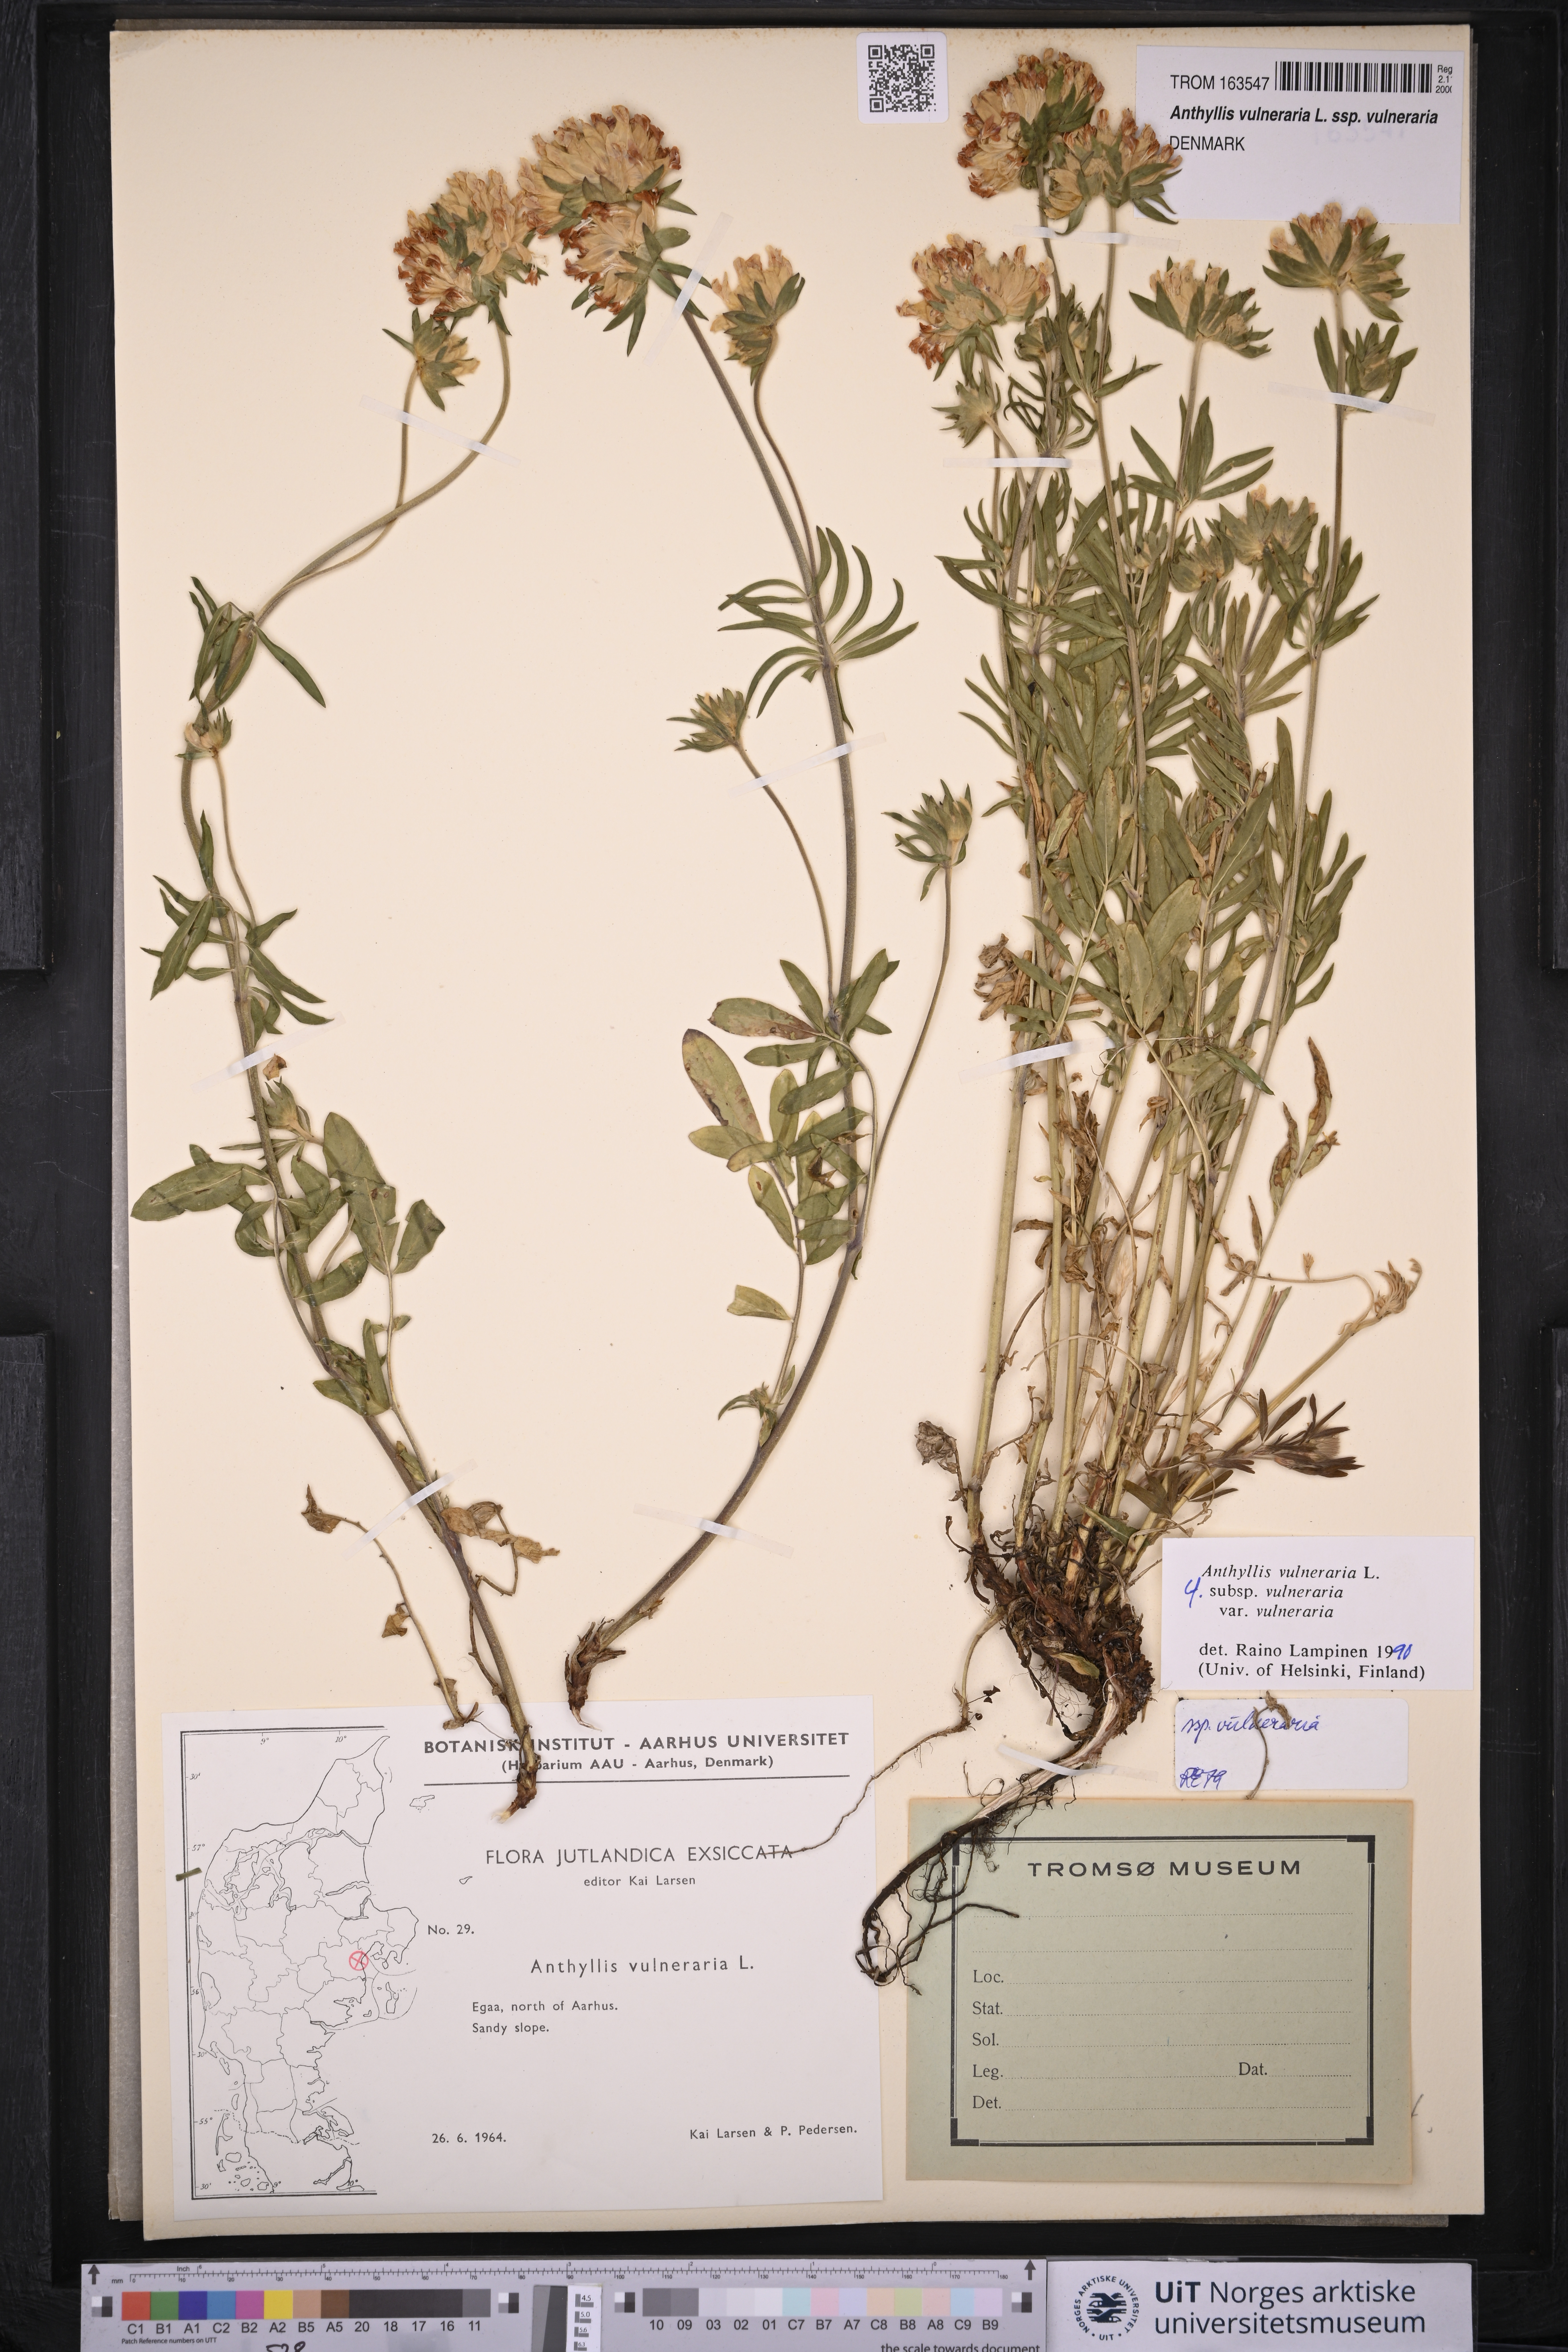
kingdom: Plantae
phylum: Tracheophyta
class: Magnoliopsida
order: Fabales
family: Fabaceae
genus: Anthyllis
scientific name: Anthyllis vulneraria
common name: Kidney vetch
